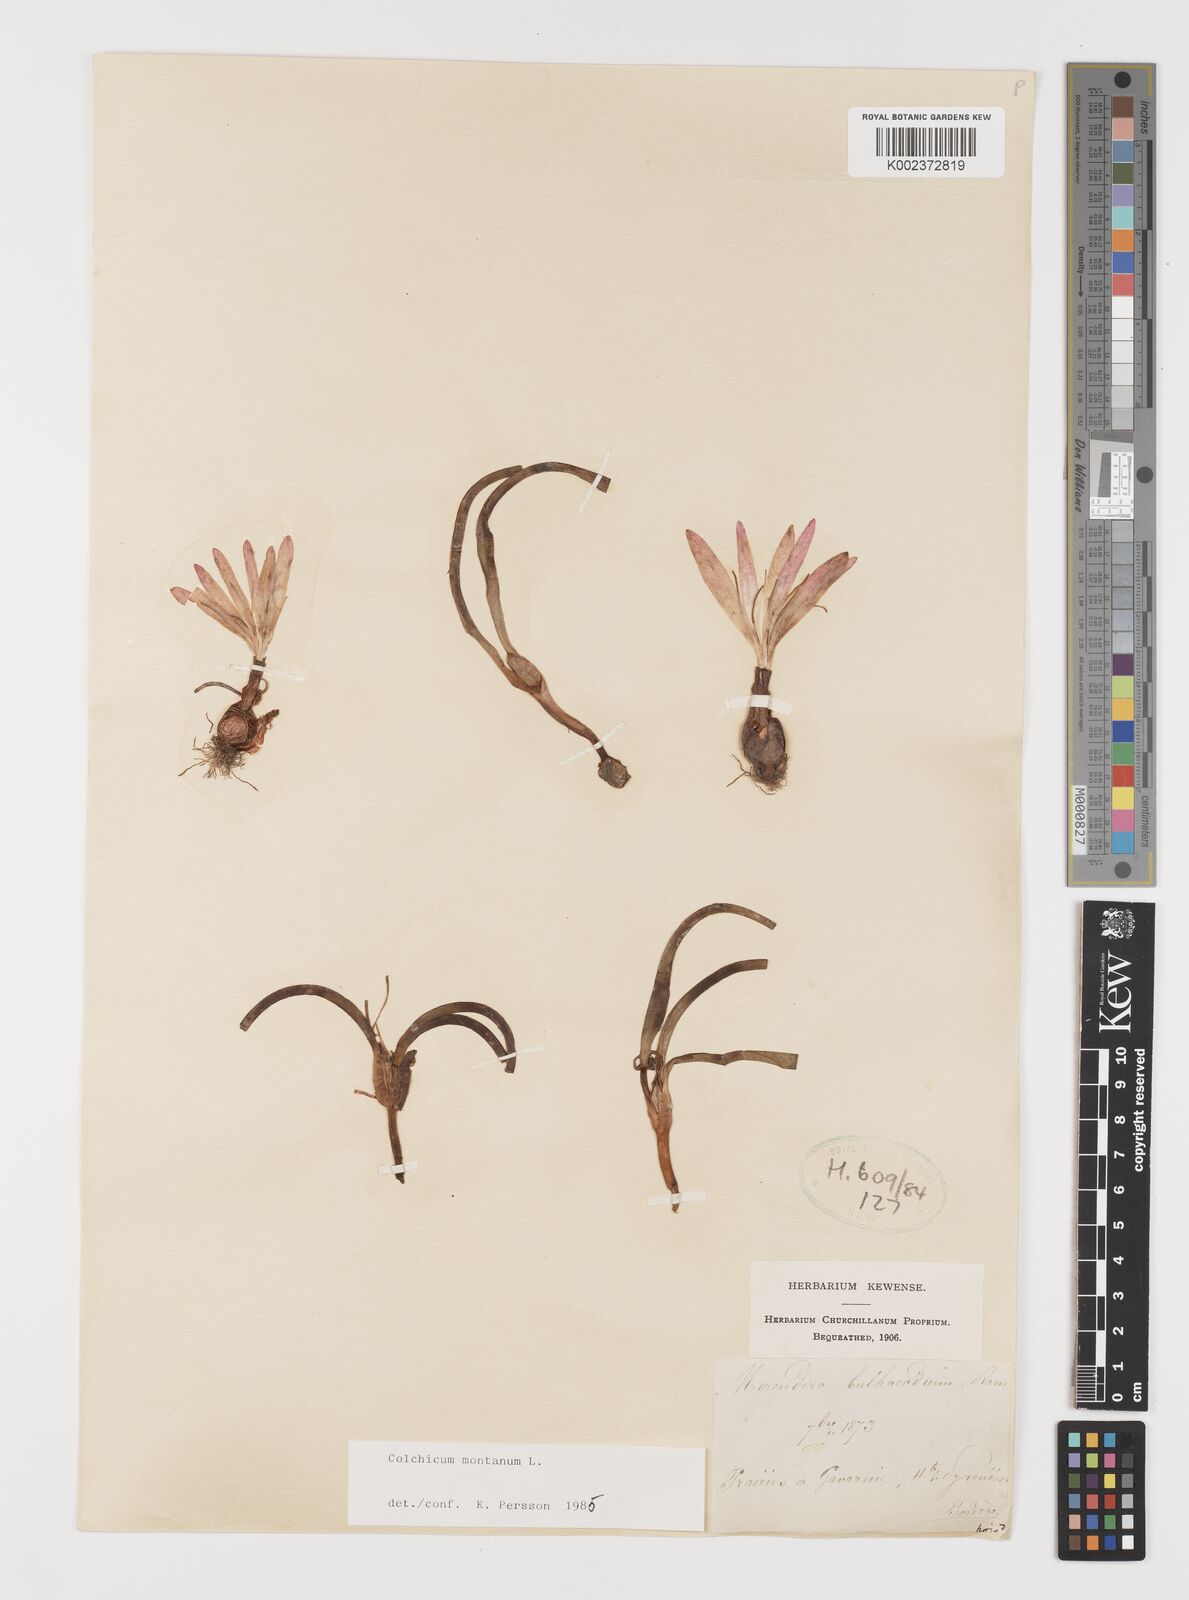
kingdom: Plantae
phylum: Tracheophyta
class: Liliopsida
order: Liliales
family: Colchicaceae
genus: Colchicum
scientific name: Colchicum montanum
